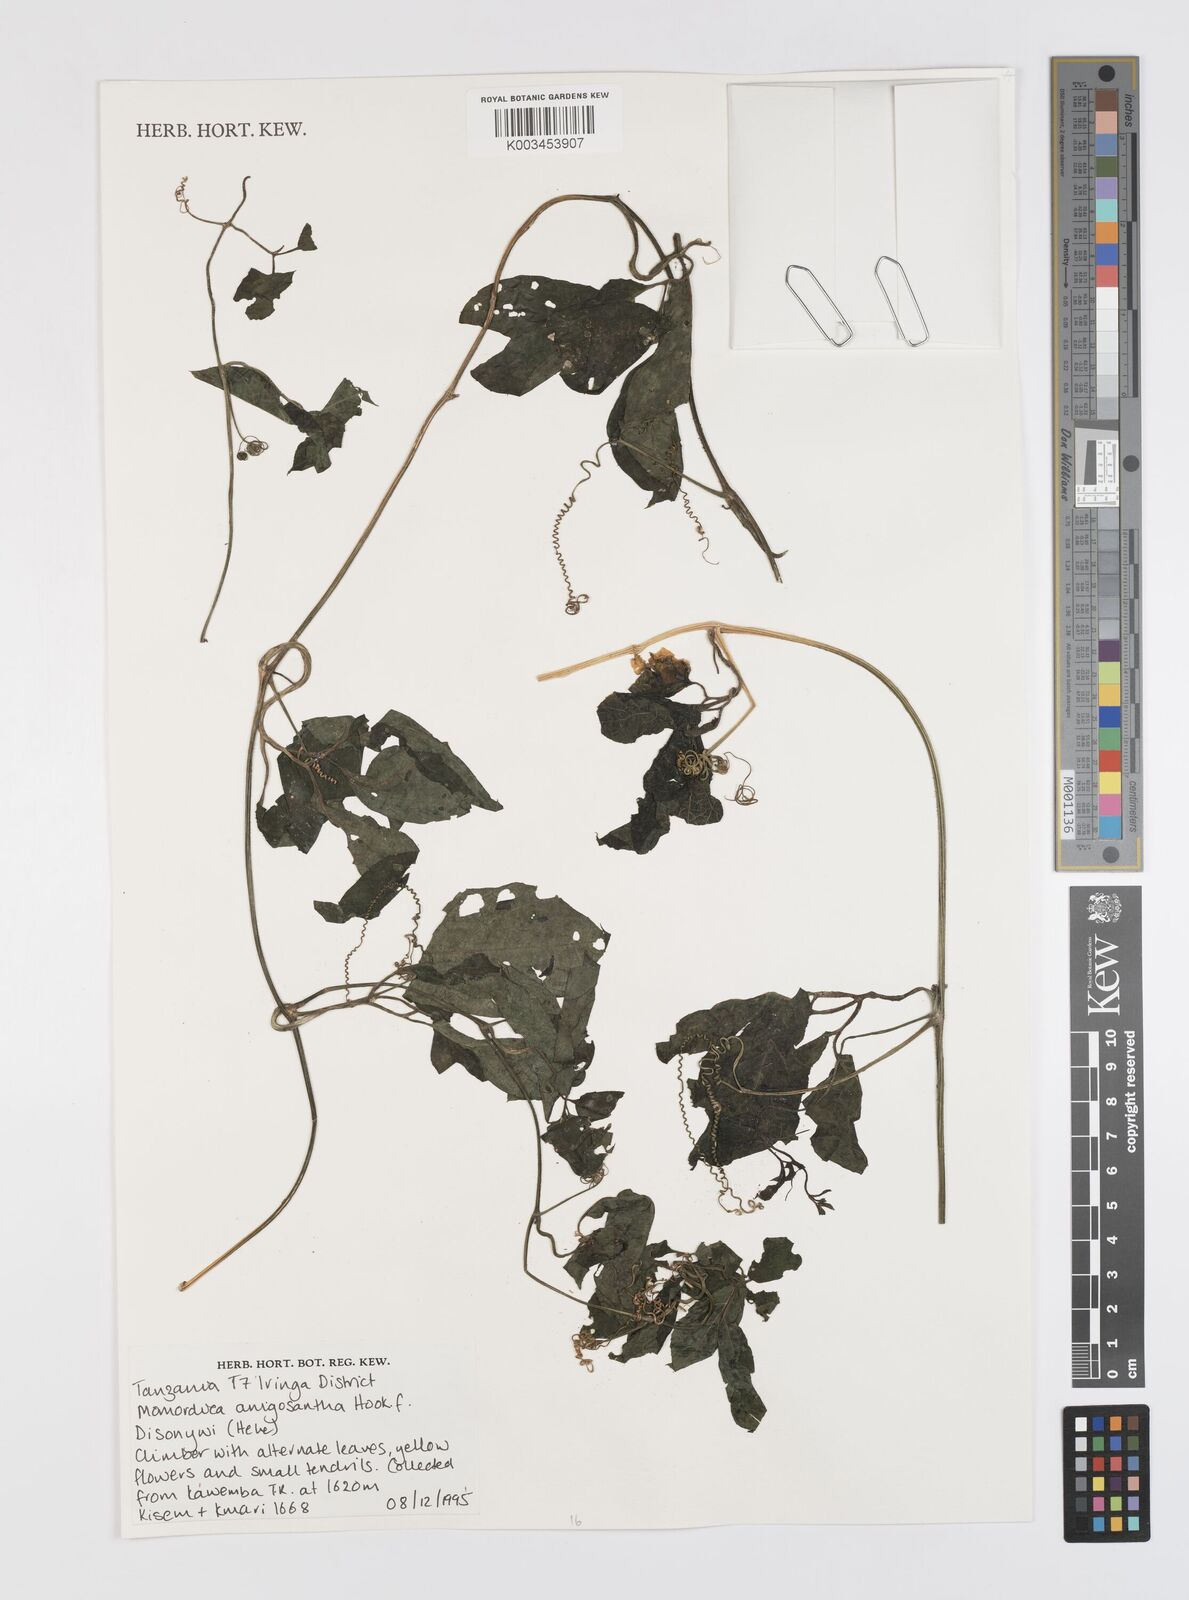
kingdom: Plantae
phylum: Tracheophyta
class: Magnoliopsida
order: Cucurbitales
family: Cucurbitaceae
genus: Momordica
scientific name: Momordica anigosantha
